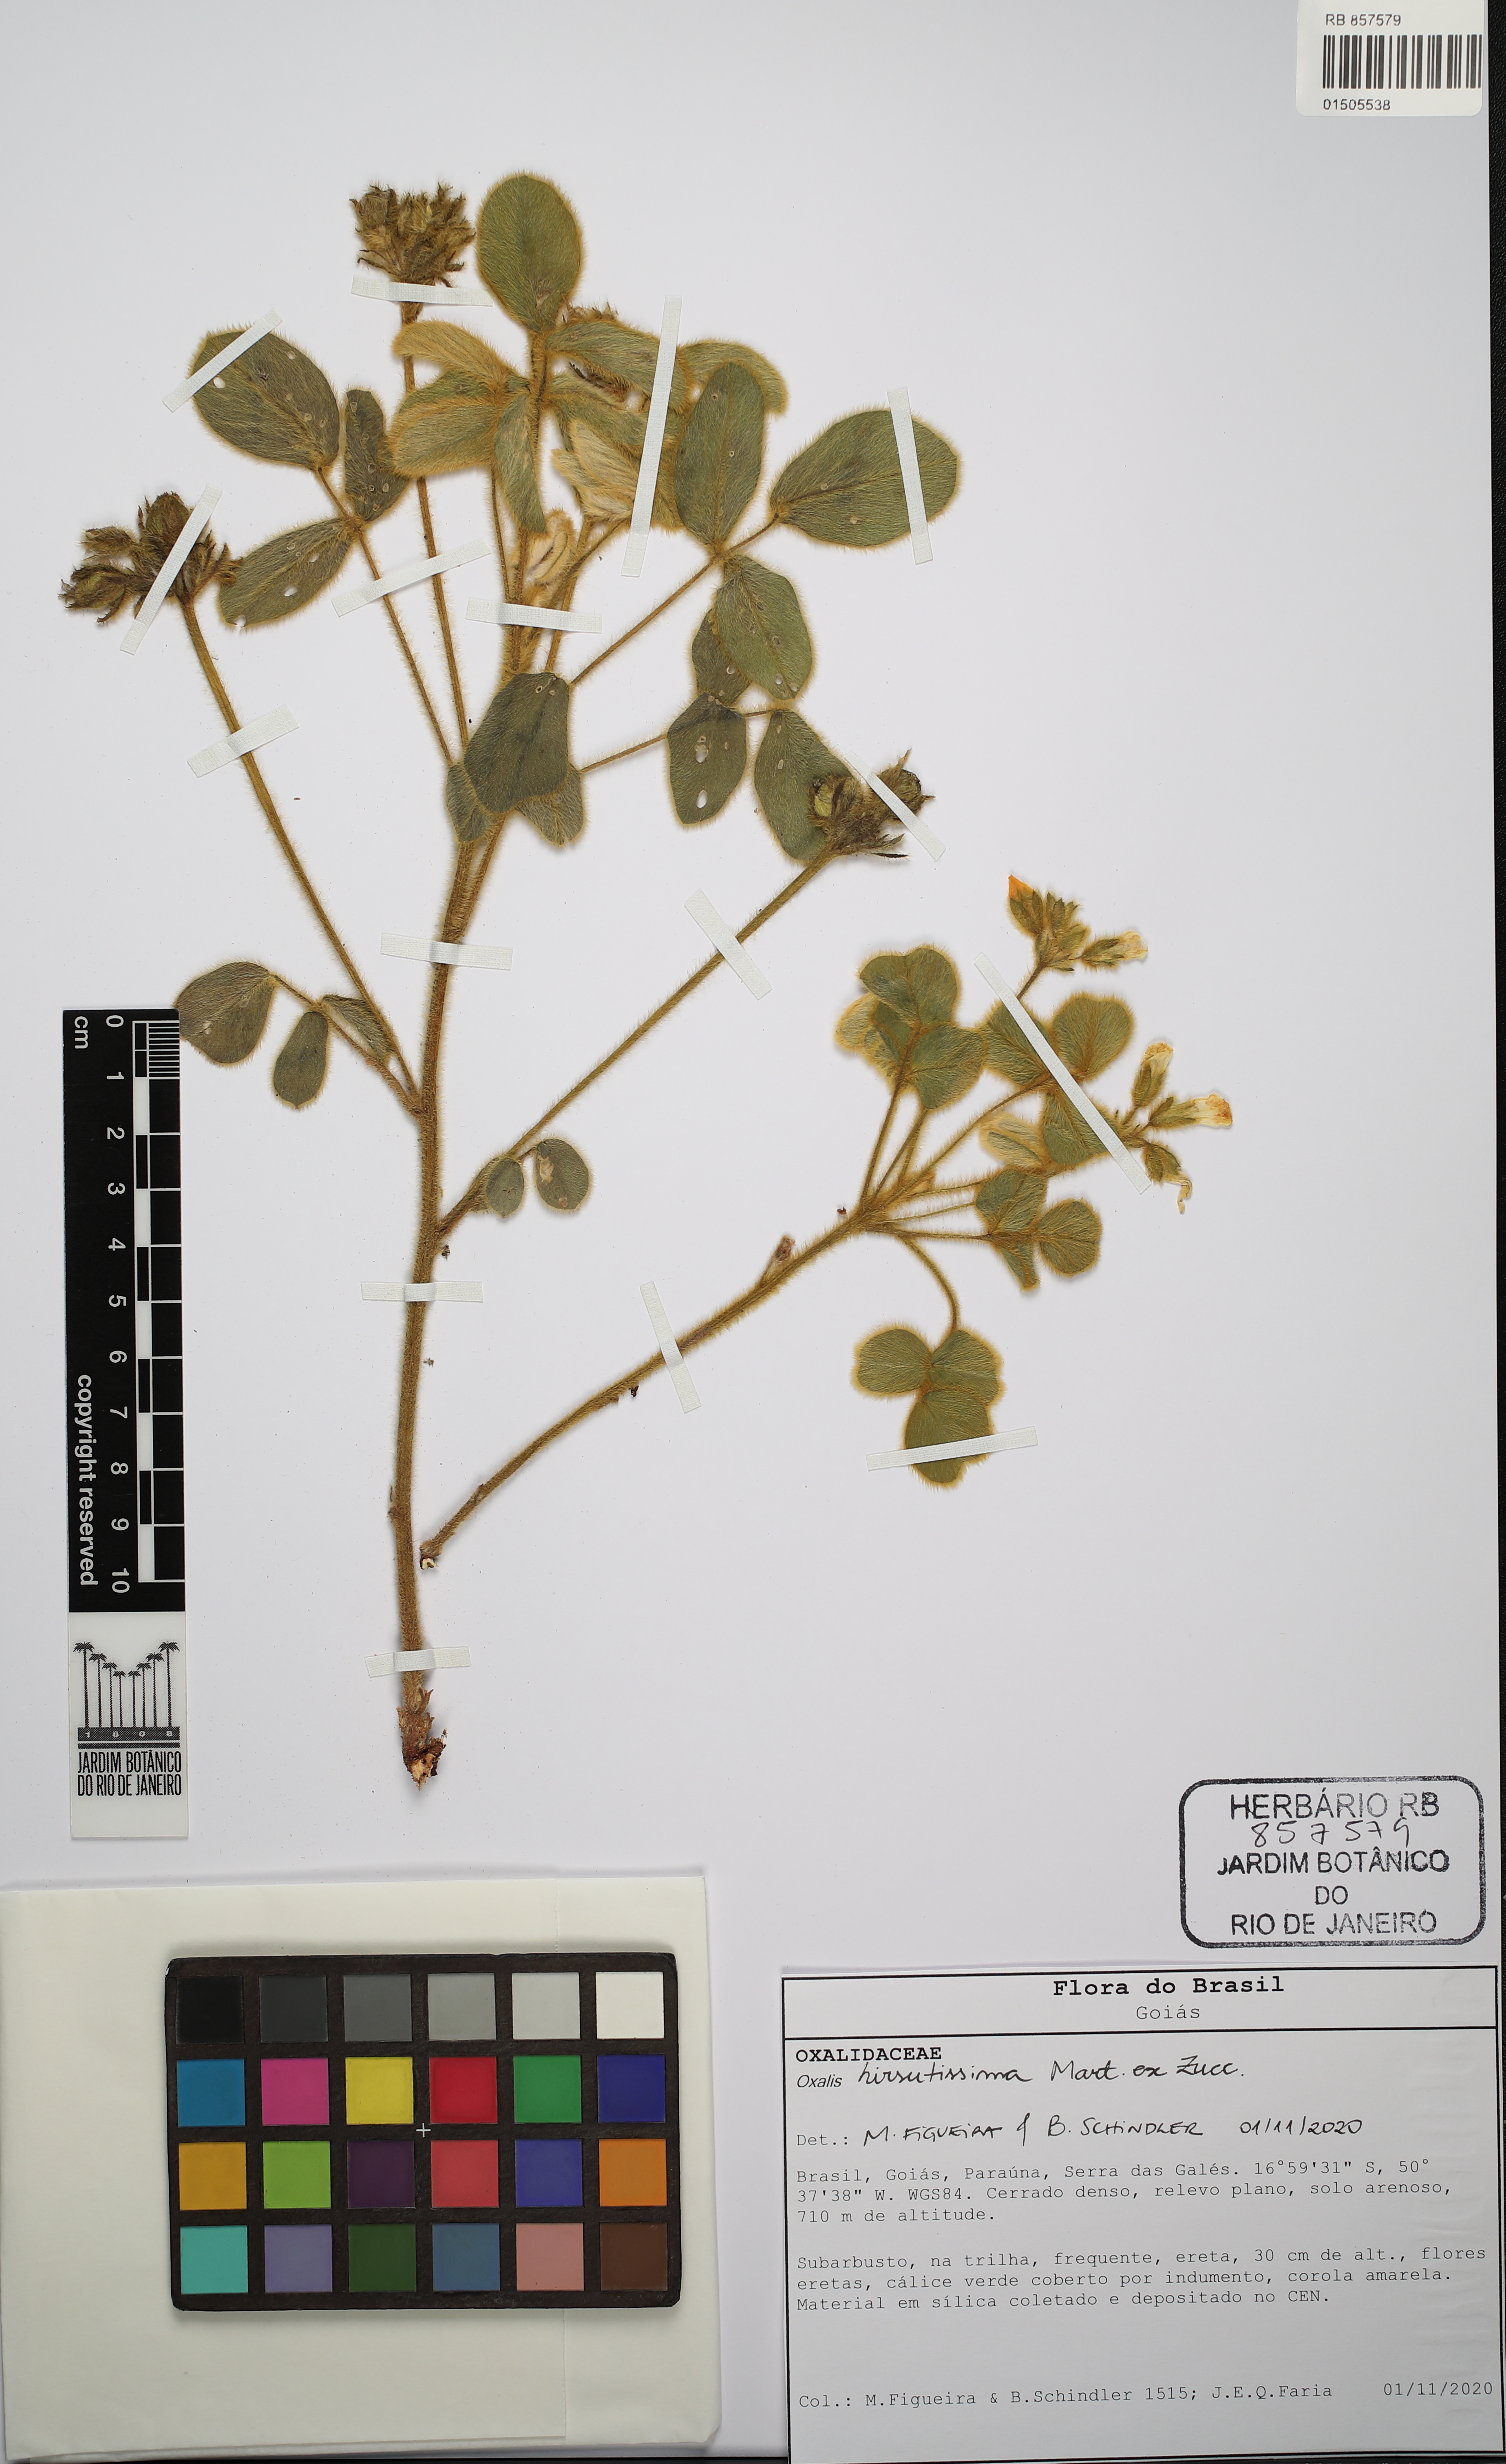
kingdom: Plantae
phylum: Tracheophyta
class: Magnoliopsida
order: Oxalidales
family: Oxalidaceae
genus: Oxalis
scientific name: Oxalis hirsutissima
